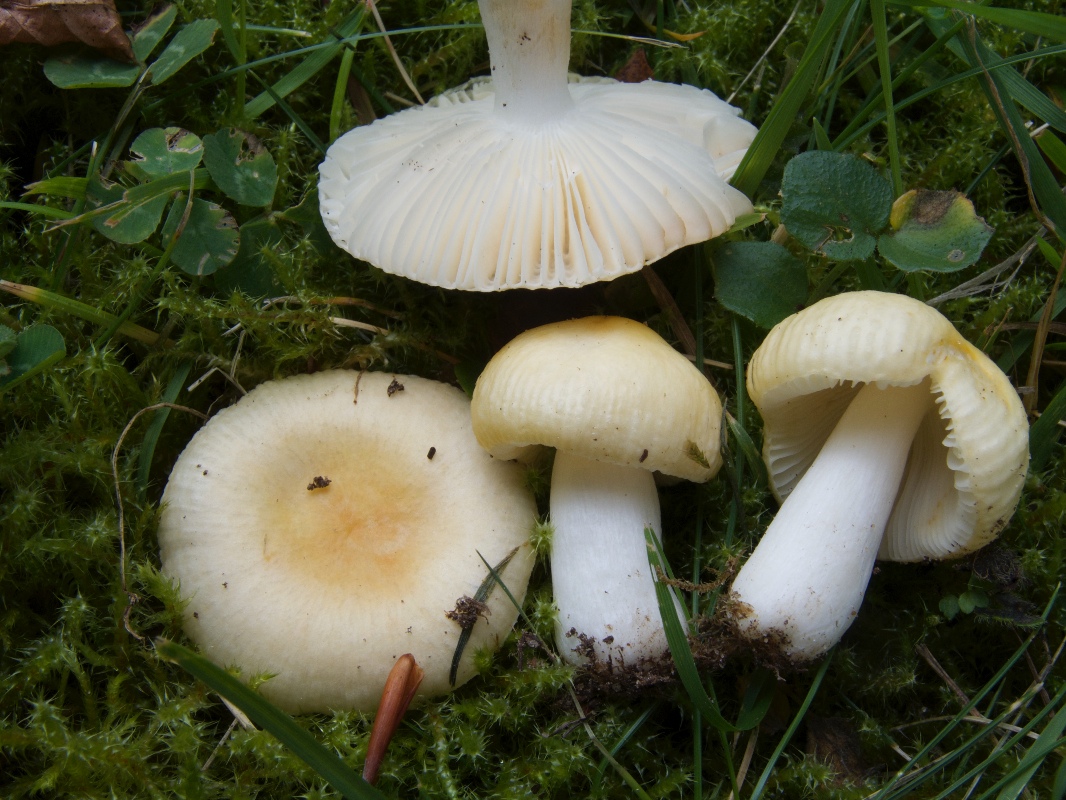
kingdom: Fungi
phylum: Basidiomycota
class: Agaricomycetes
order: Russulales
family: Russulaceae
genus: Russula
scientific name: Russula solaris
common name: sol-skørhat
